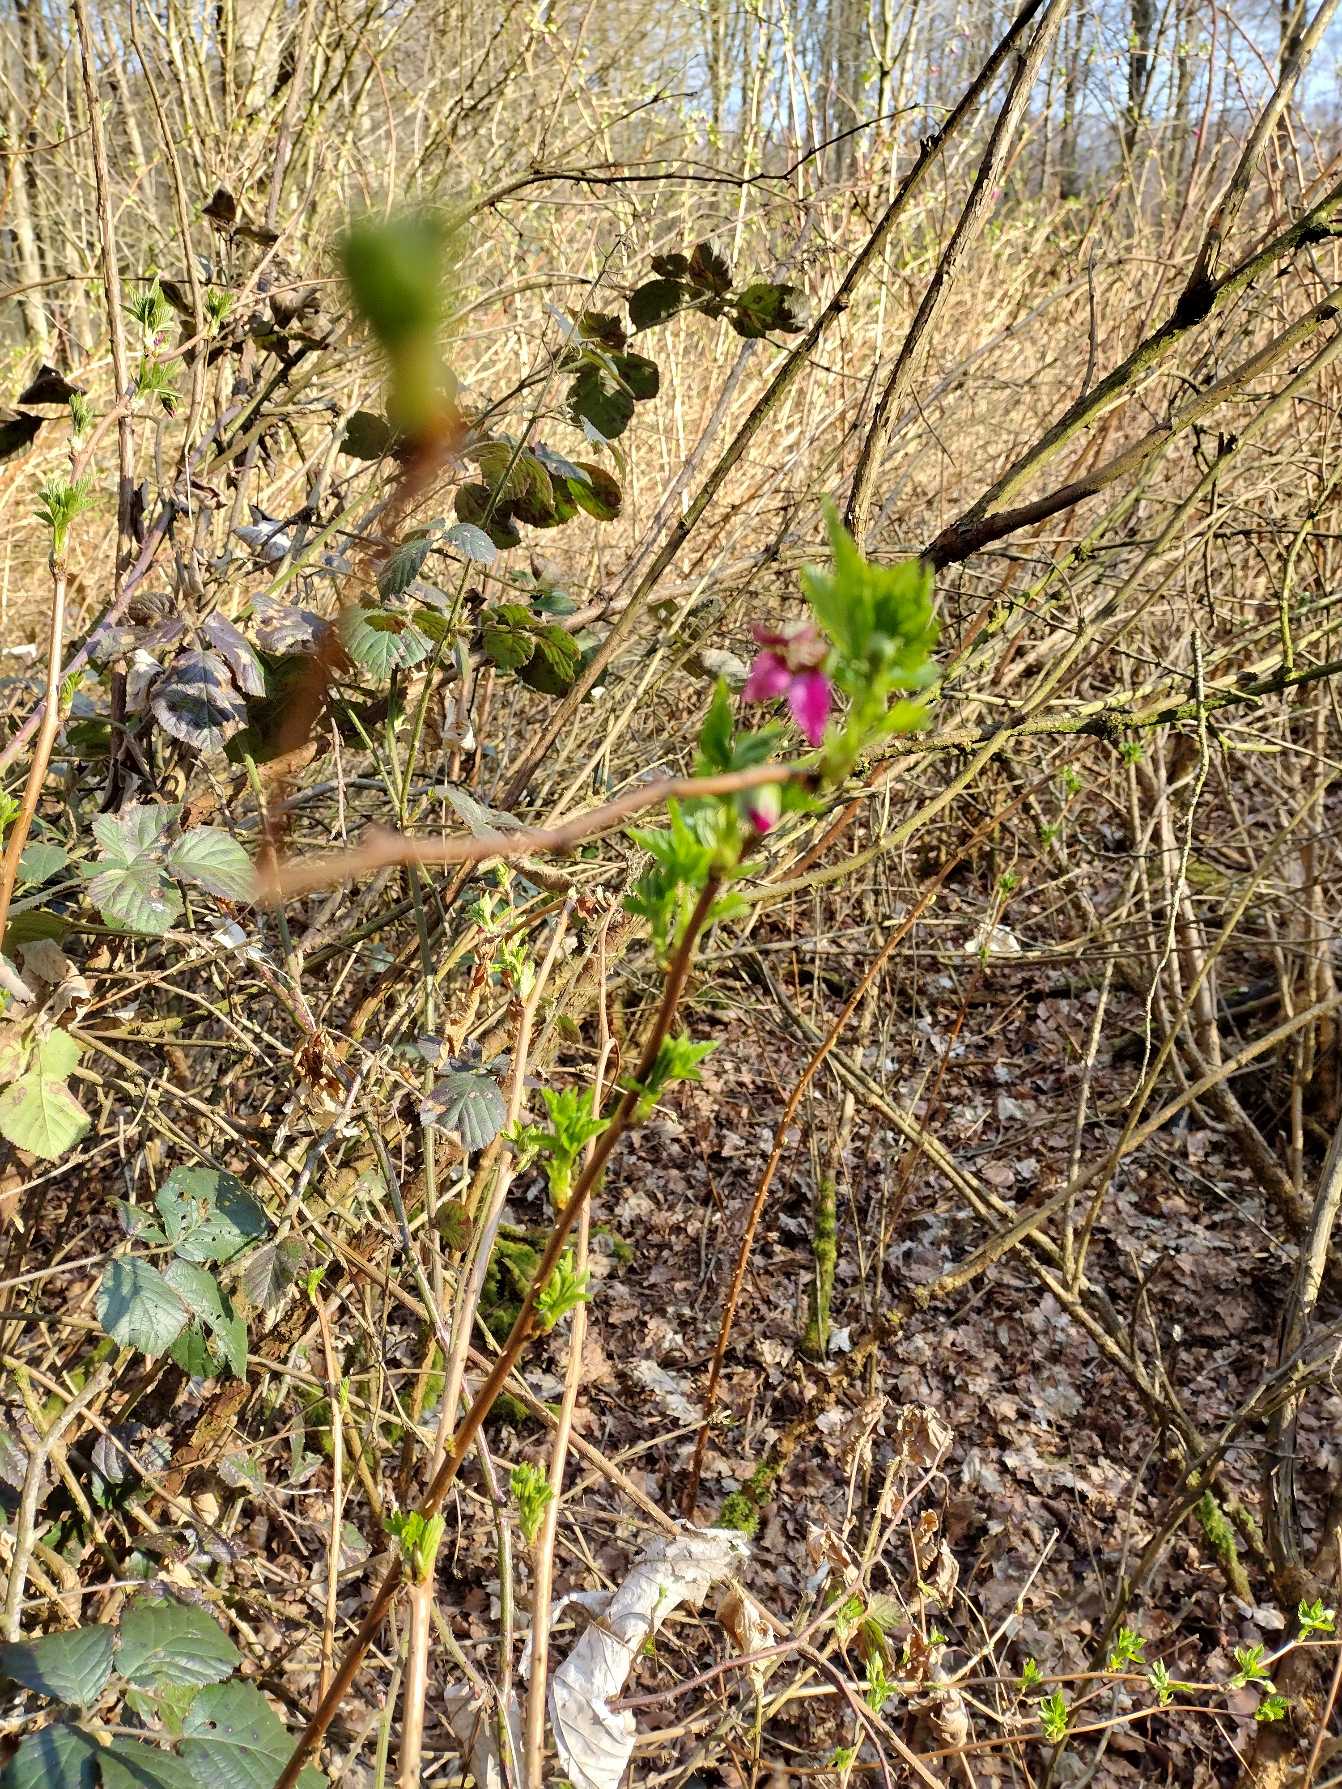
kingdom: Plantae
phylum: Tracheophyta
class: Magnoliopsida
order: Rosales
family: Rosaceae
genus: Rubus
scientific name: Rubus spectabilis
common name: Laksebær
